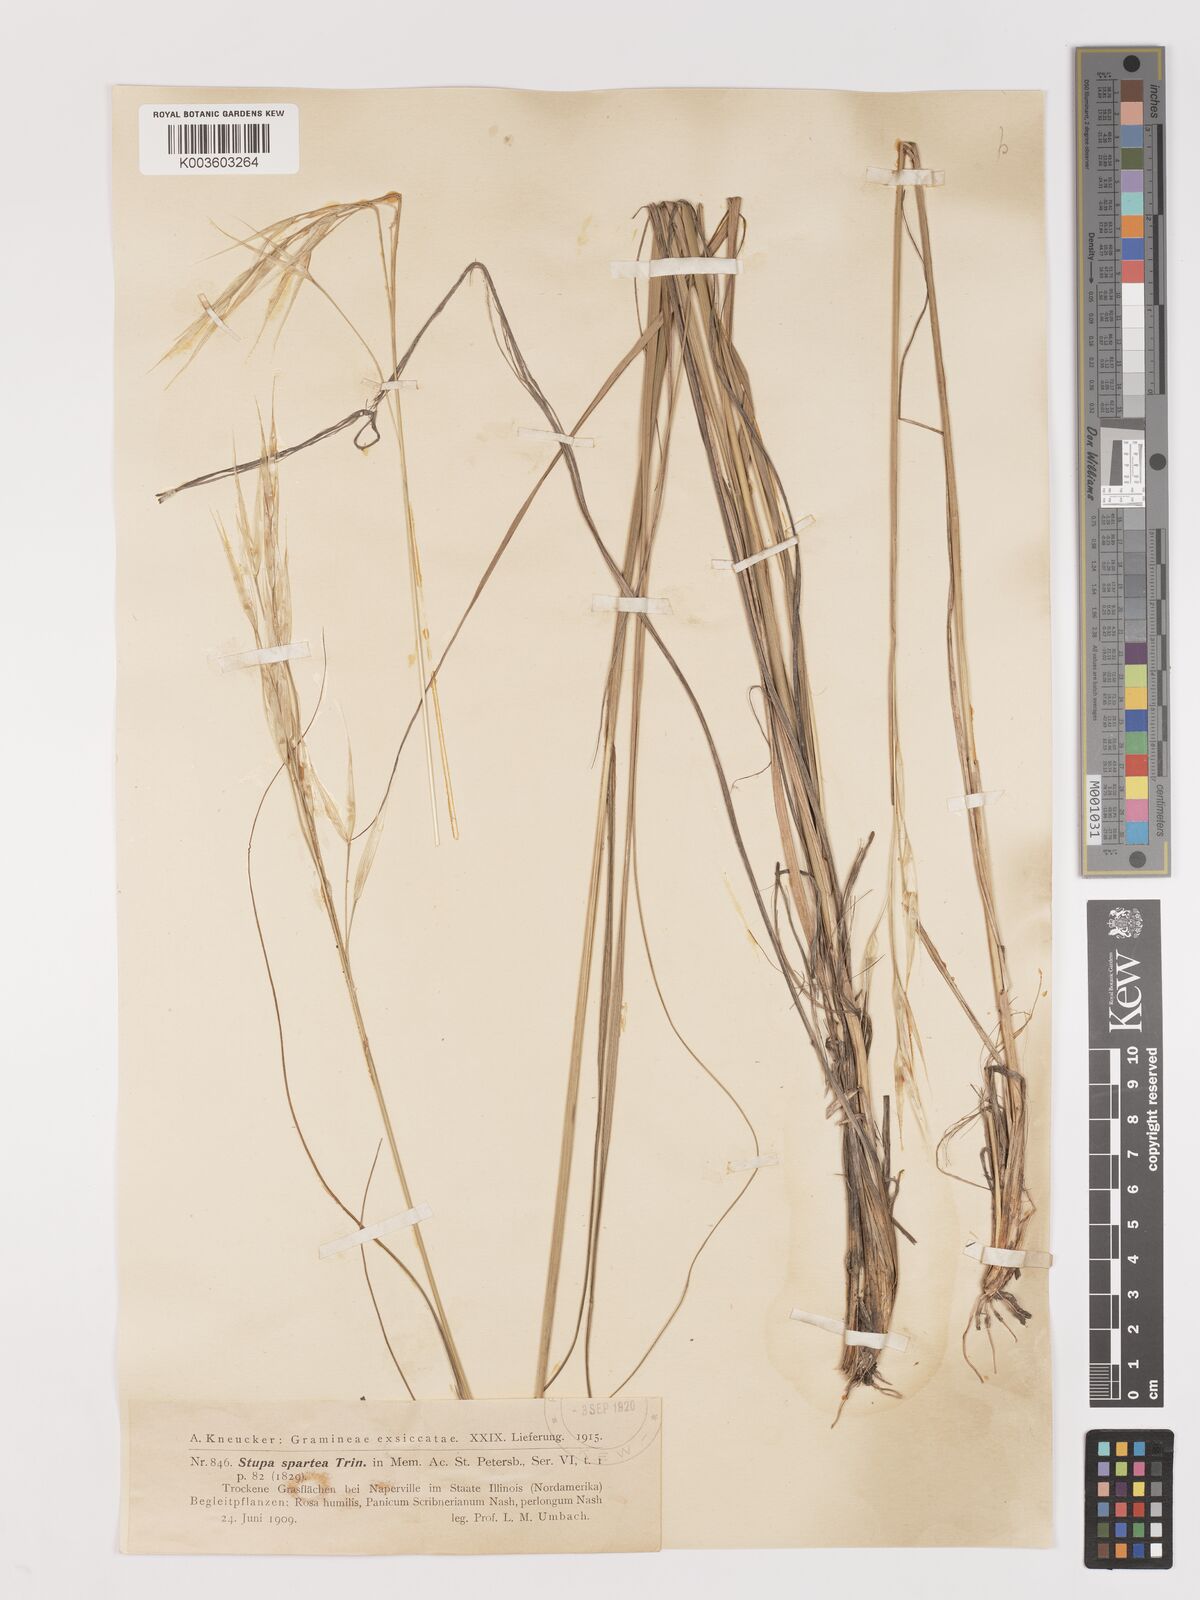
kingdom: Plantae
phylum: Tracheophyta
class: Liliopsida
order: Poales
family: Poaceae
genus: Hesperostipa
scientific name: Hesperostipa spartea
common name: Porcupine grass
